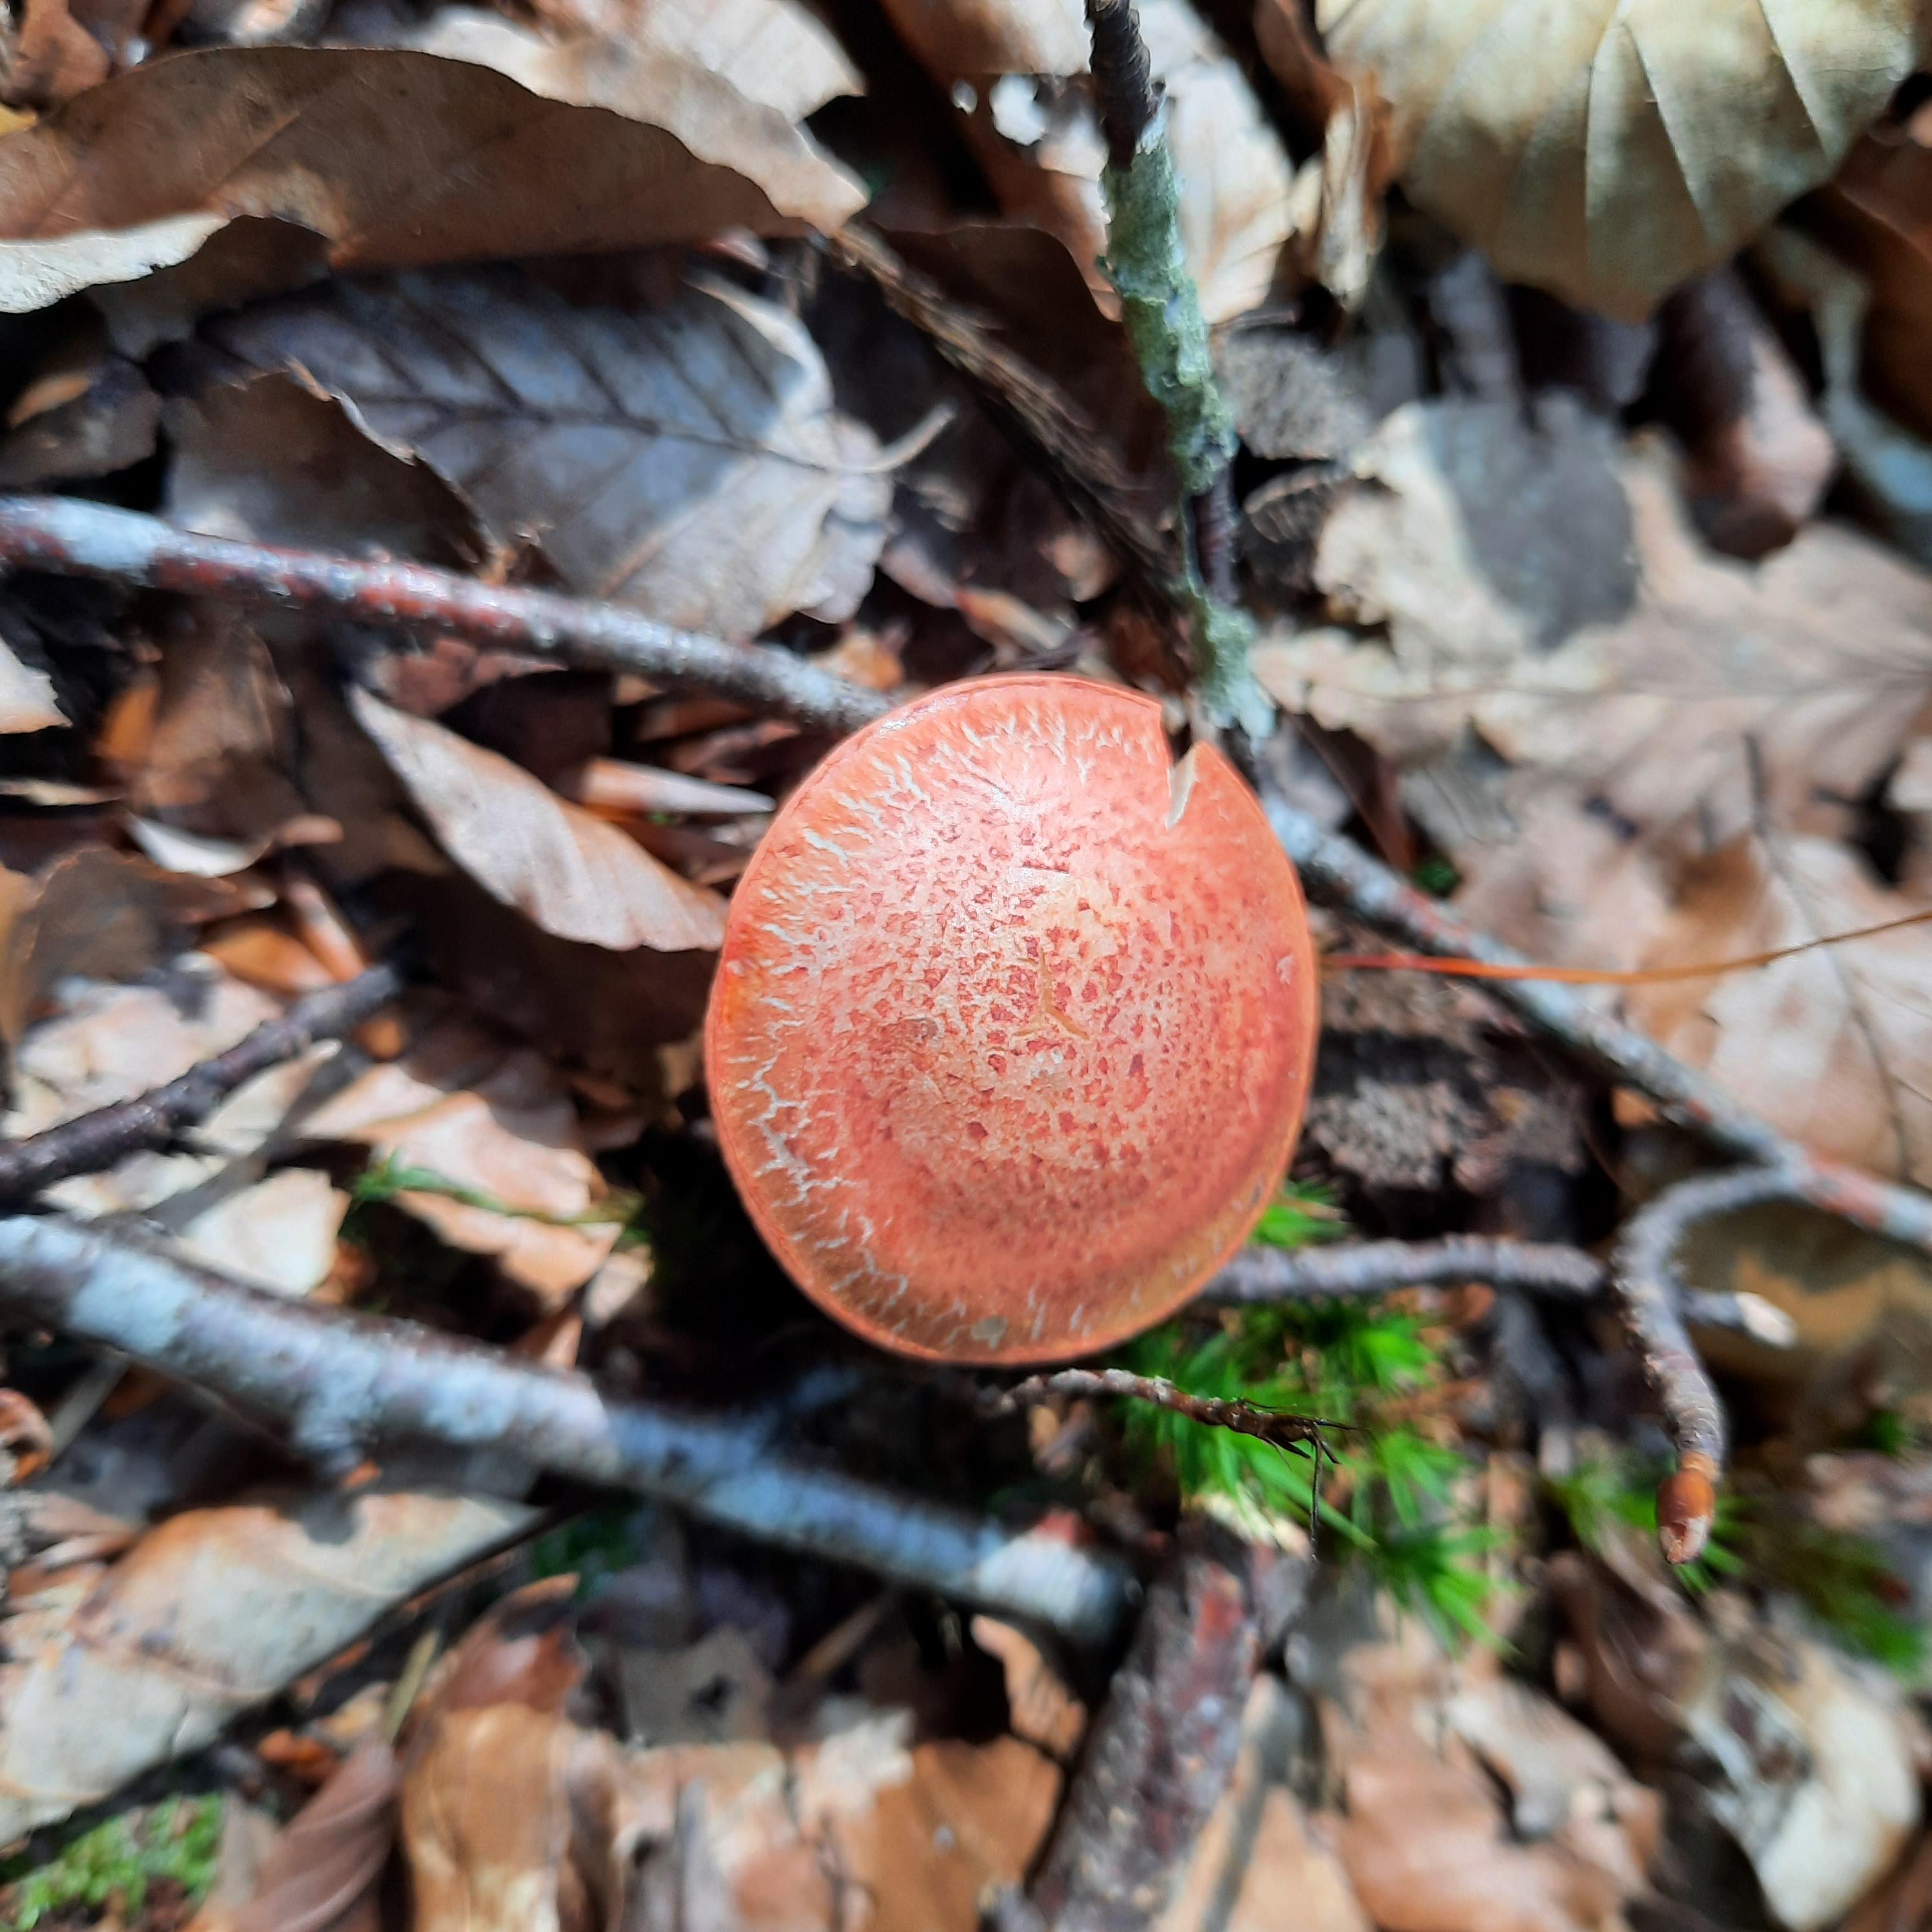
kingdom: Fungi
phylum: Basidiomycota
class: Agaricomycetes
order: Agaricales
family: Cortinariaceae
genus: Cortinarius
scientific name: Cortinarius bolaris
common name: cinnoberskællet slørhat
